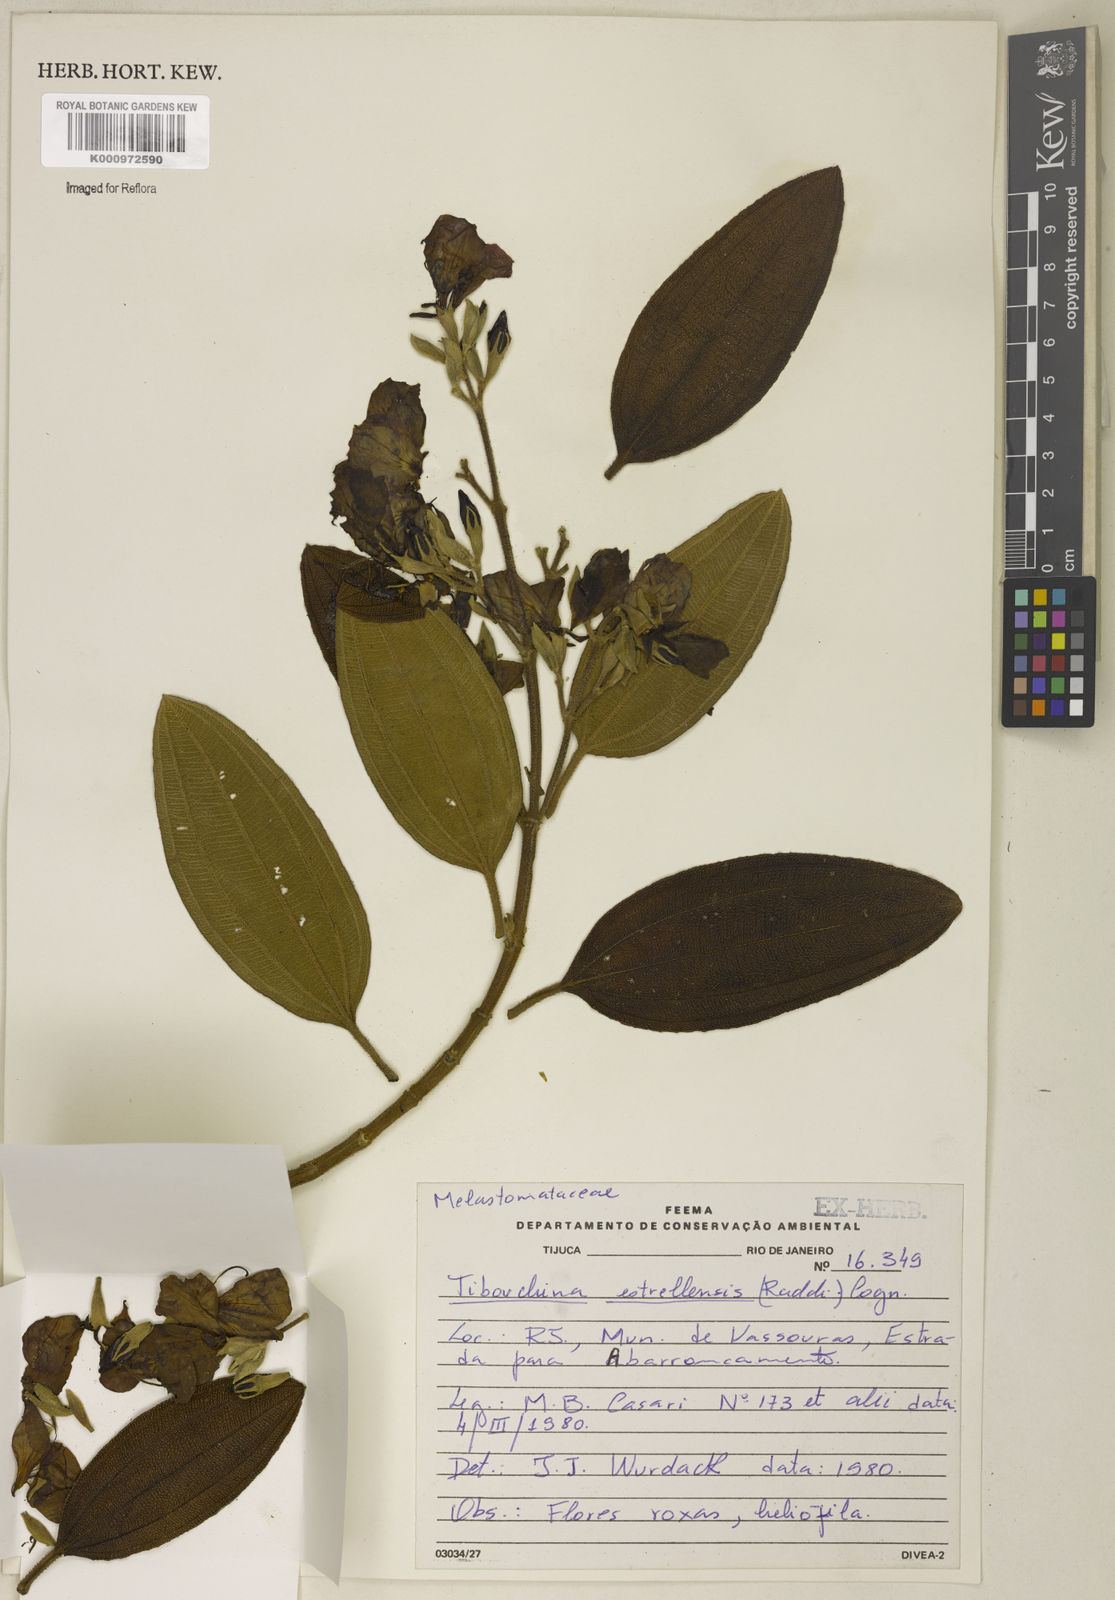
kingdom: Plantae
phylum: Tracheophyta
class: Magnoliopsida
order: Myrtales
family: Melastomataceae
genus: Pleroma
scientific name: Pleroma estrellense
